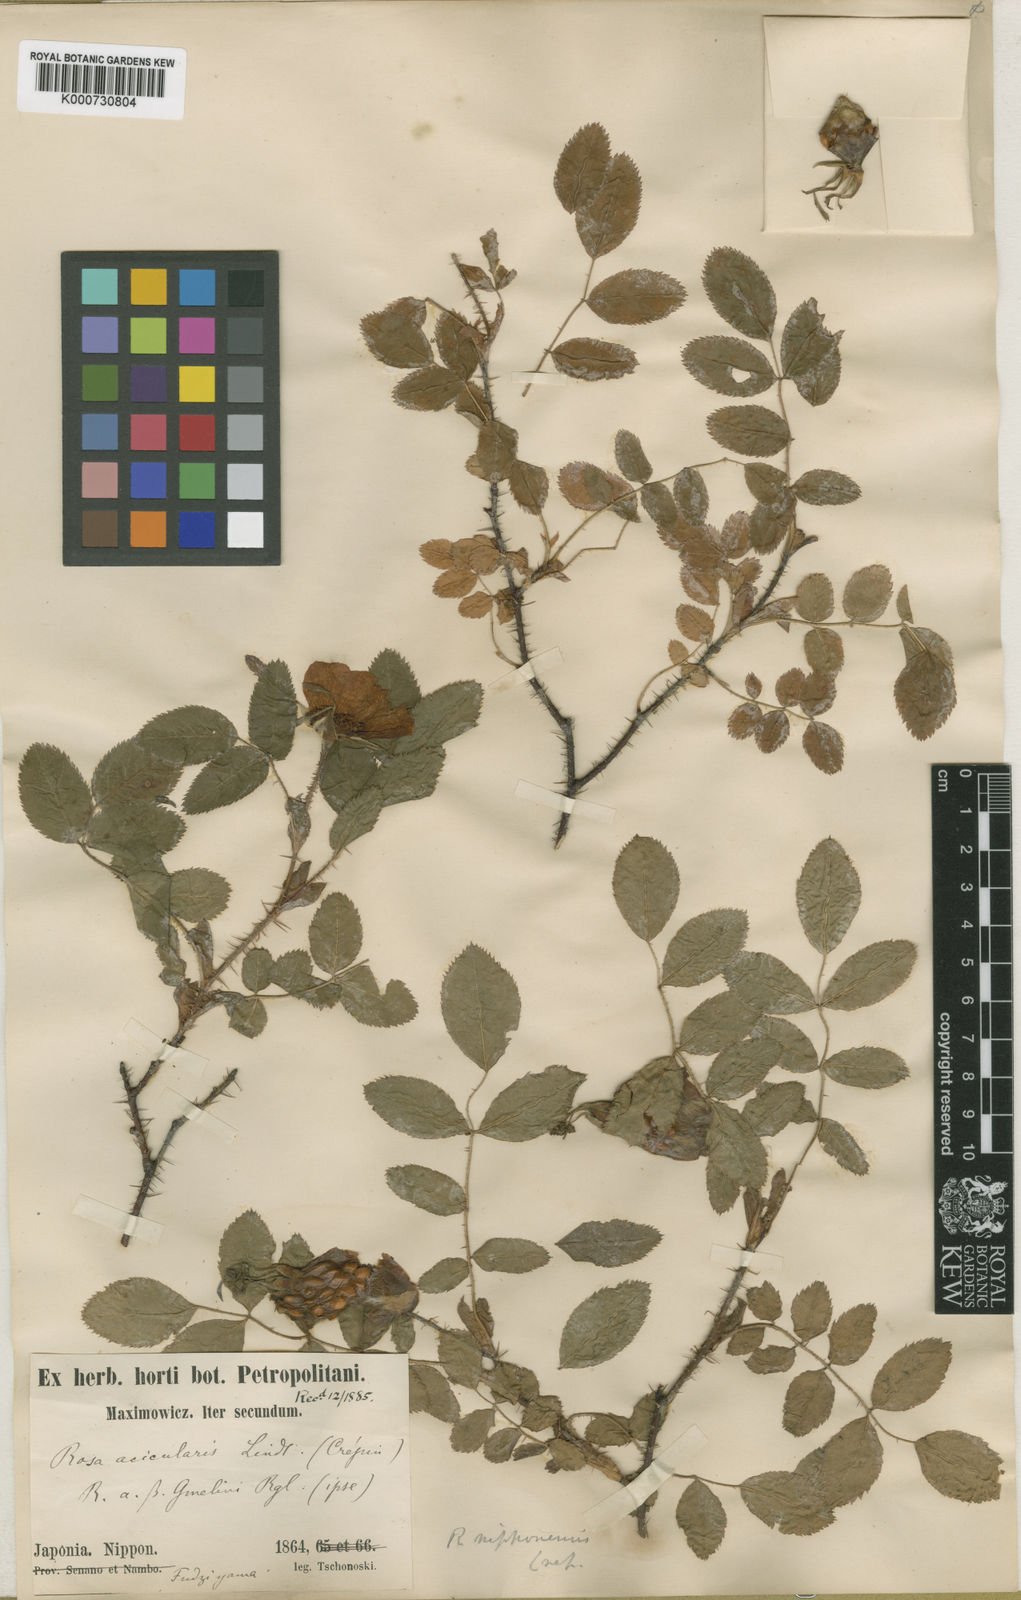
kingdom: Plantae
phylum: Tracheophyta
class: Magnoliopsida
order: Rosales
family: Rosaceae
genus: Rosa
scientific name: Rosa
